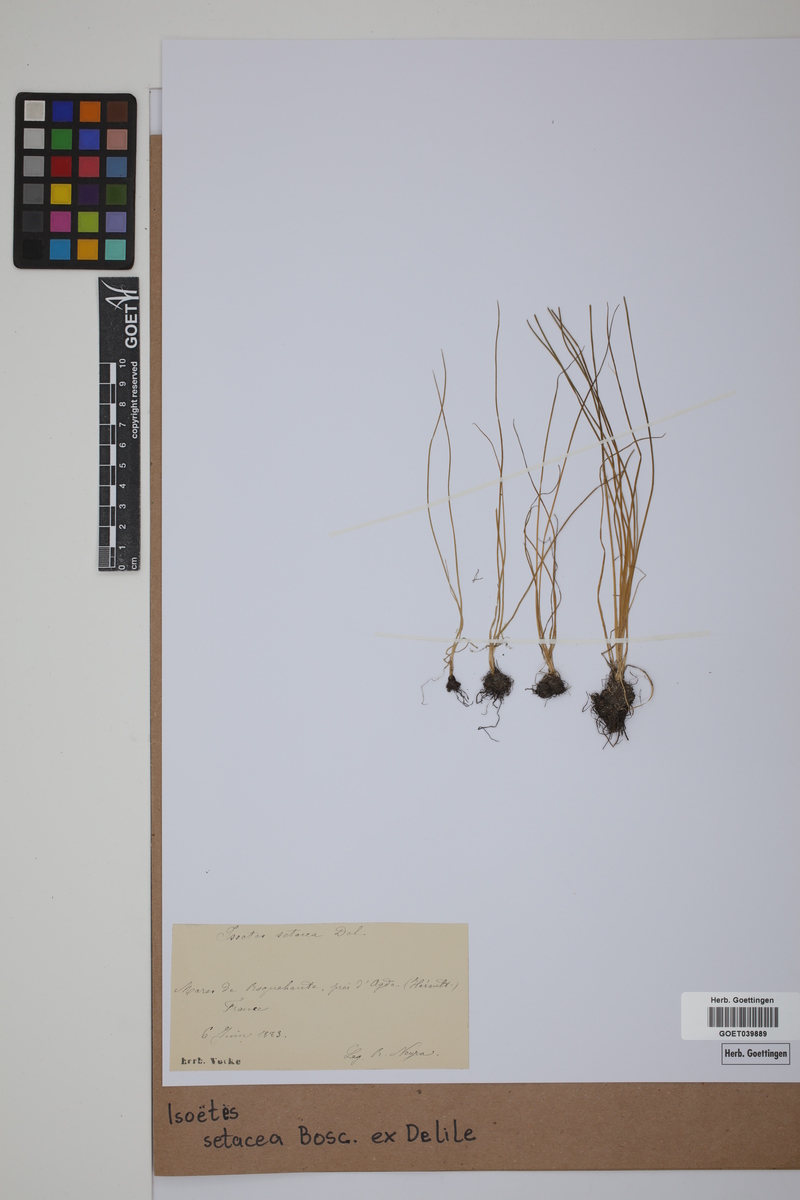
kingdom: Plantae
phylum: Tracheophyta
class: Lycopodiopsida
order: Isoetales
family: Isoetaceae
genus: Isoetes
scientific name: Isoetes longissima
